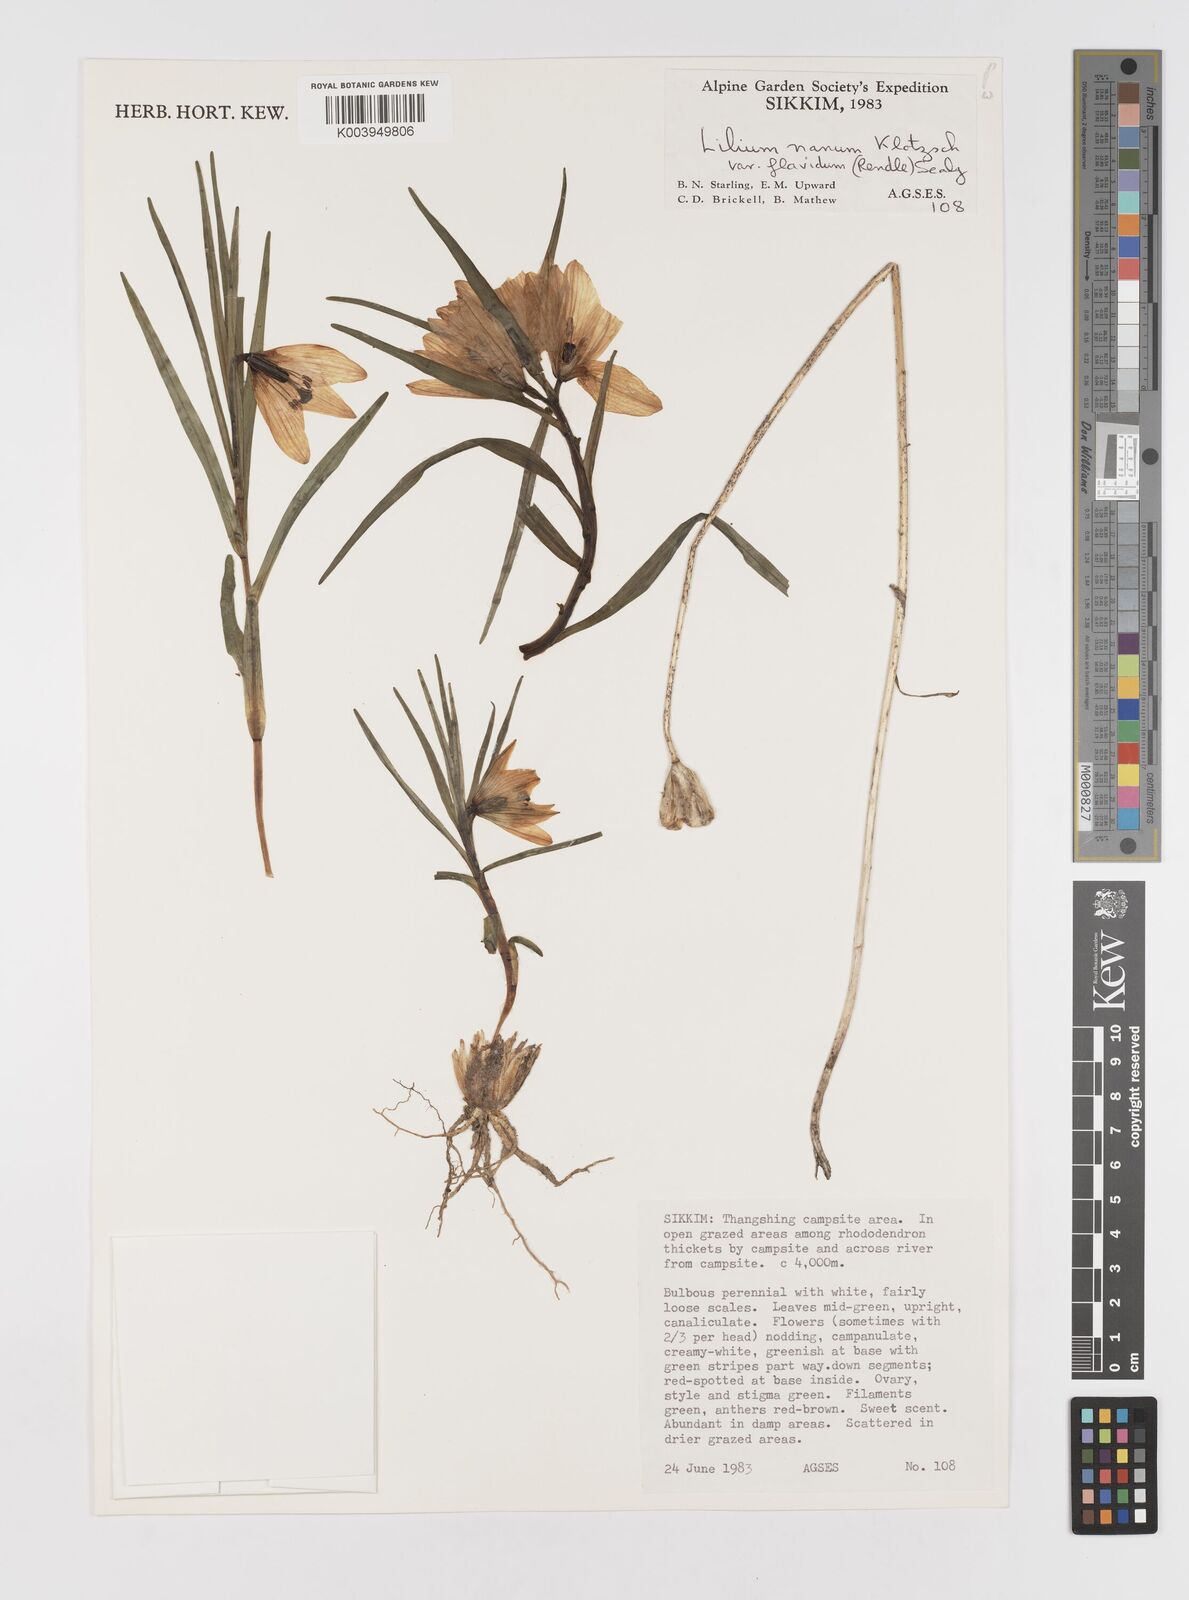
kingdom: Plantae
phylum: Tracheophyta
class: Liliopsida
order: Liliales
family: Liliaceae
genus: Lilium
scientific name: Lilium nanum
